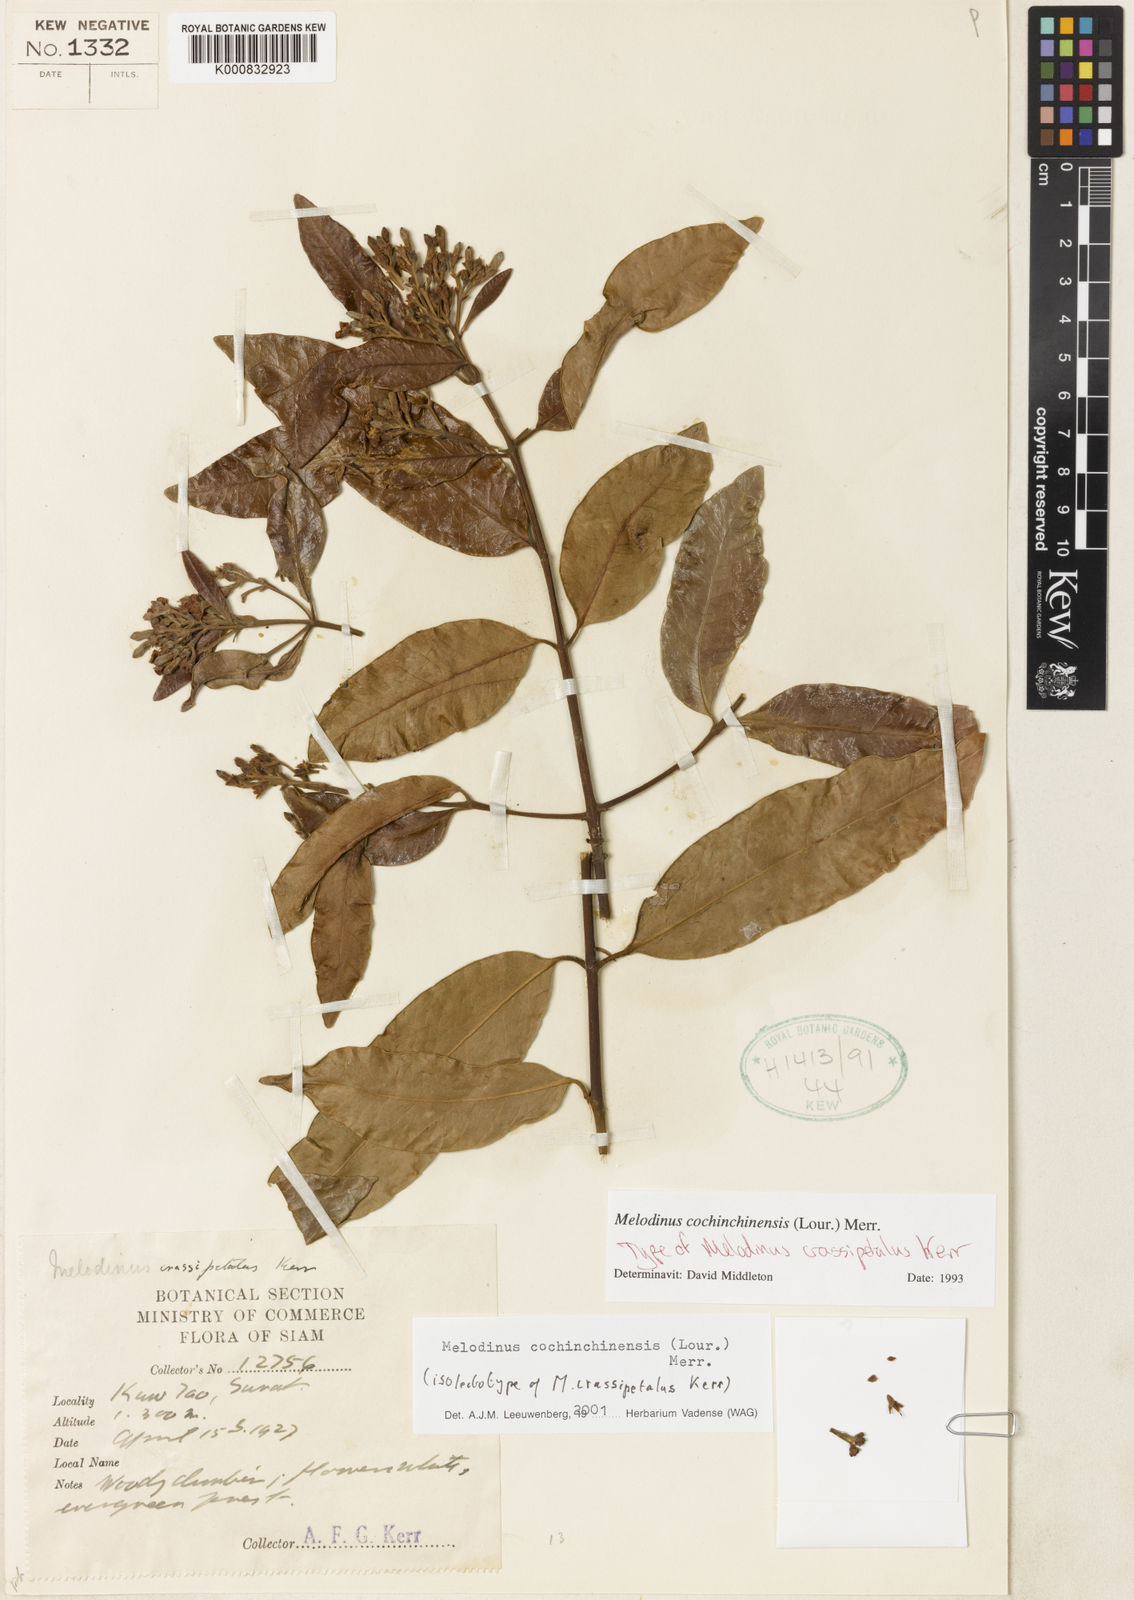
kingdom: Plantae
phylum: Tracheophyta
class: Magnoliopsida
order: Gentianales
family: Apocynaceae
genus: Melodinus
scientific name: Melodinus cochinchinensis
